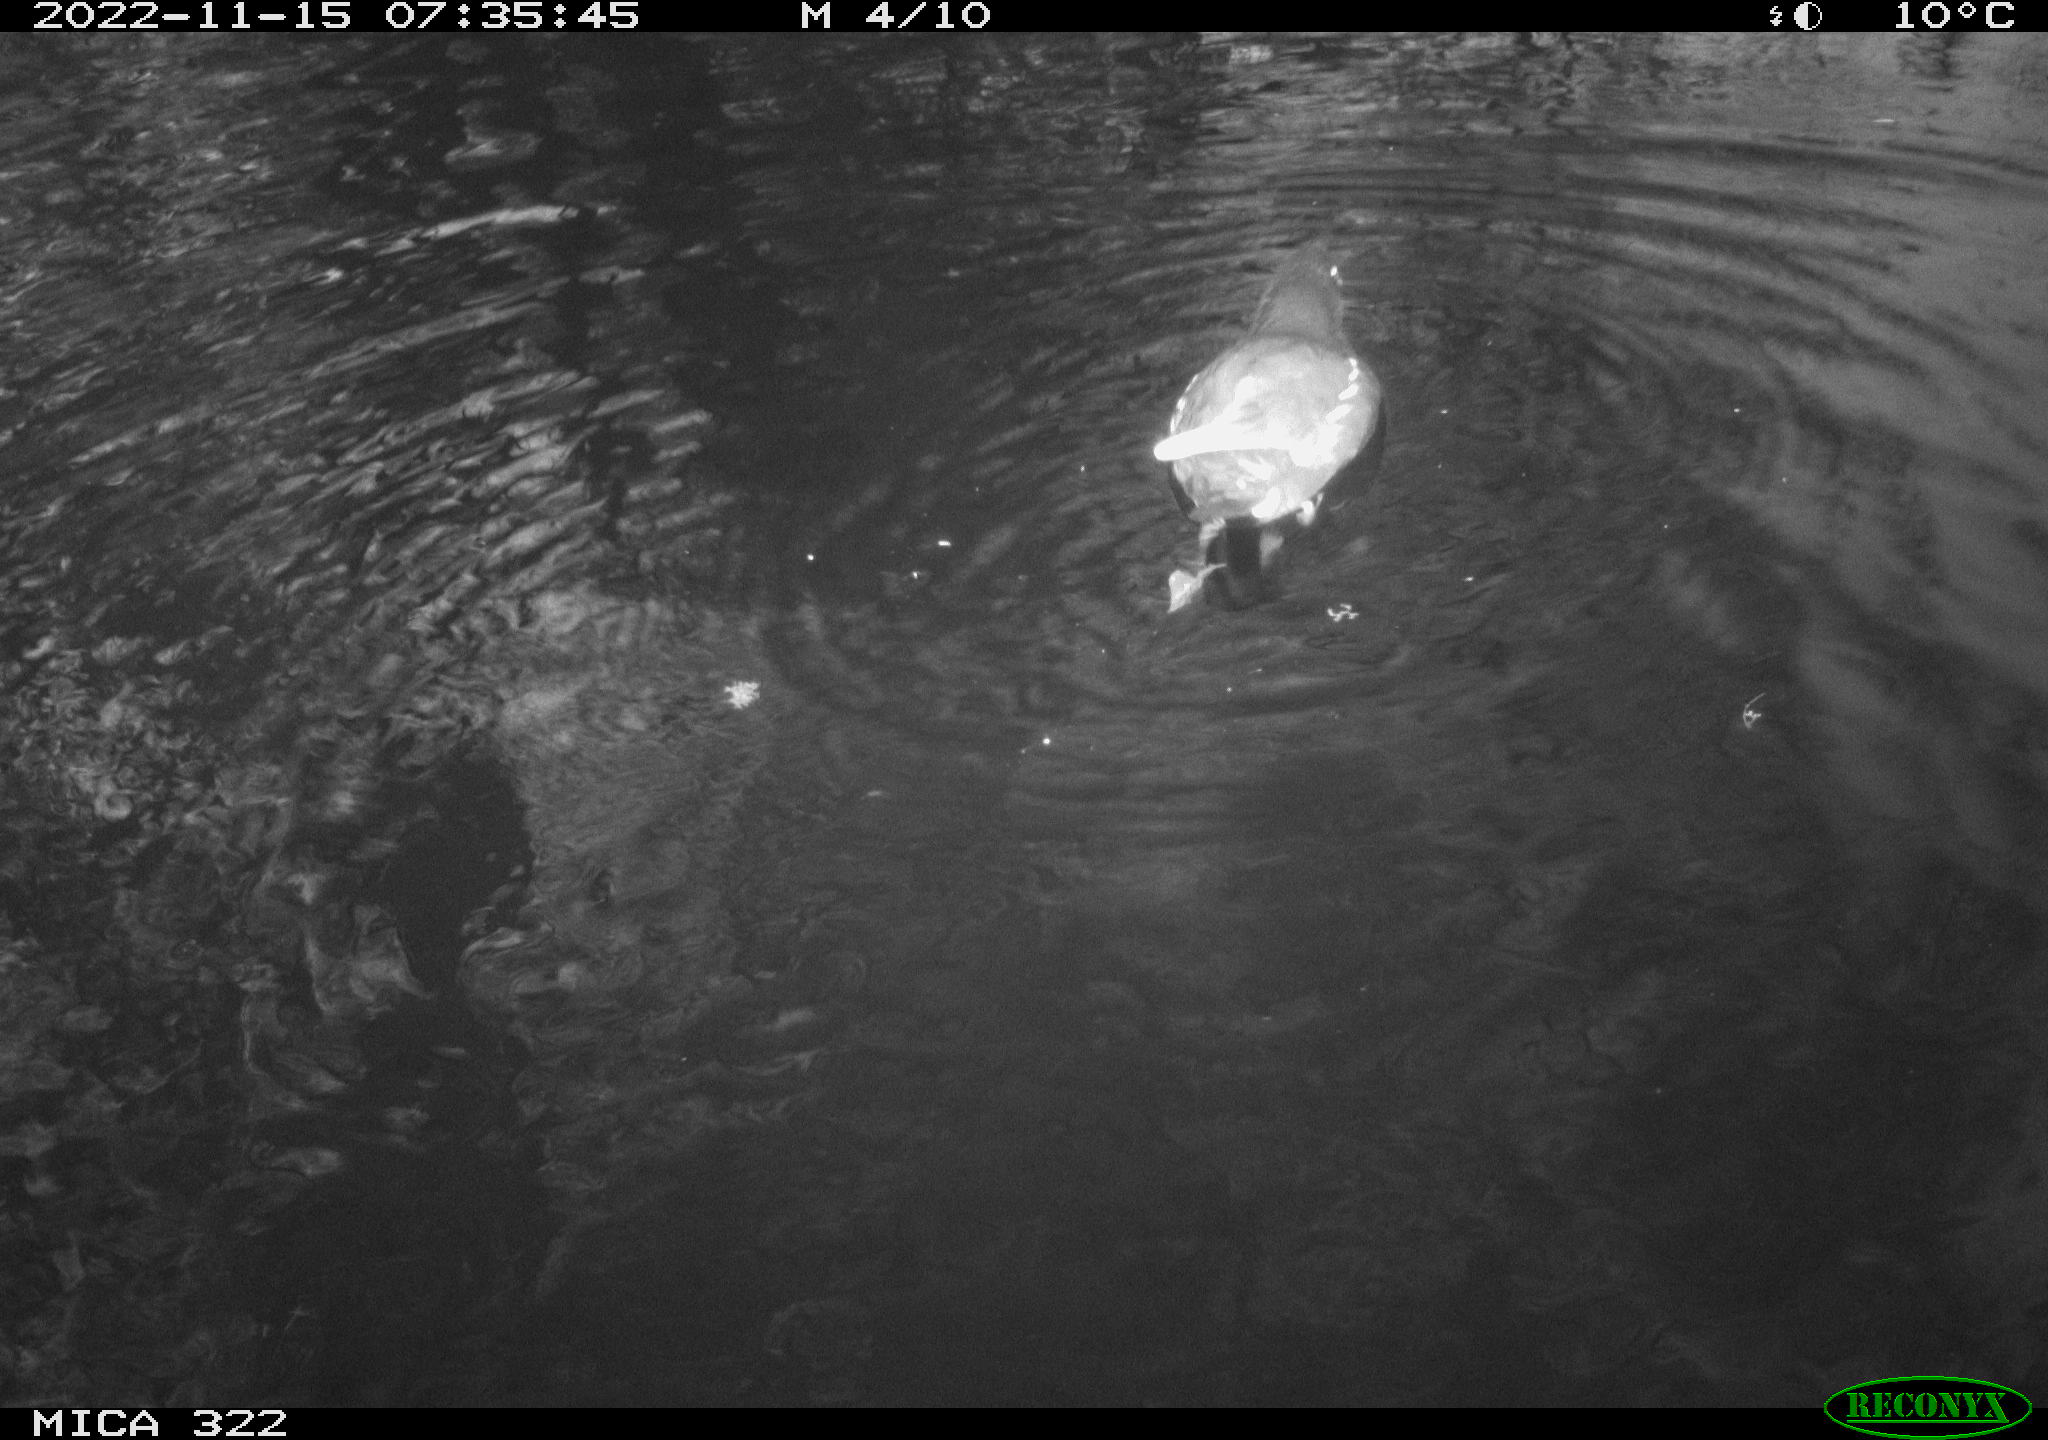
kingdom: Animalia
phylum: Chordata
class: Aves
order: Anseriformes
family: Anatidae
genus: Anas
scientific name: Anas
